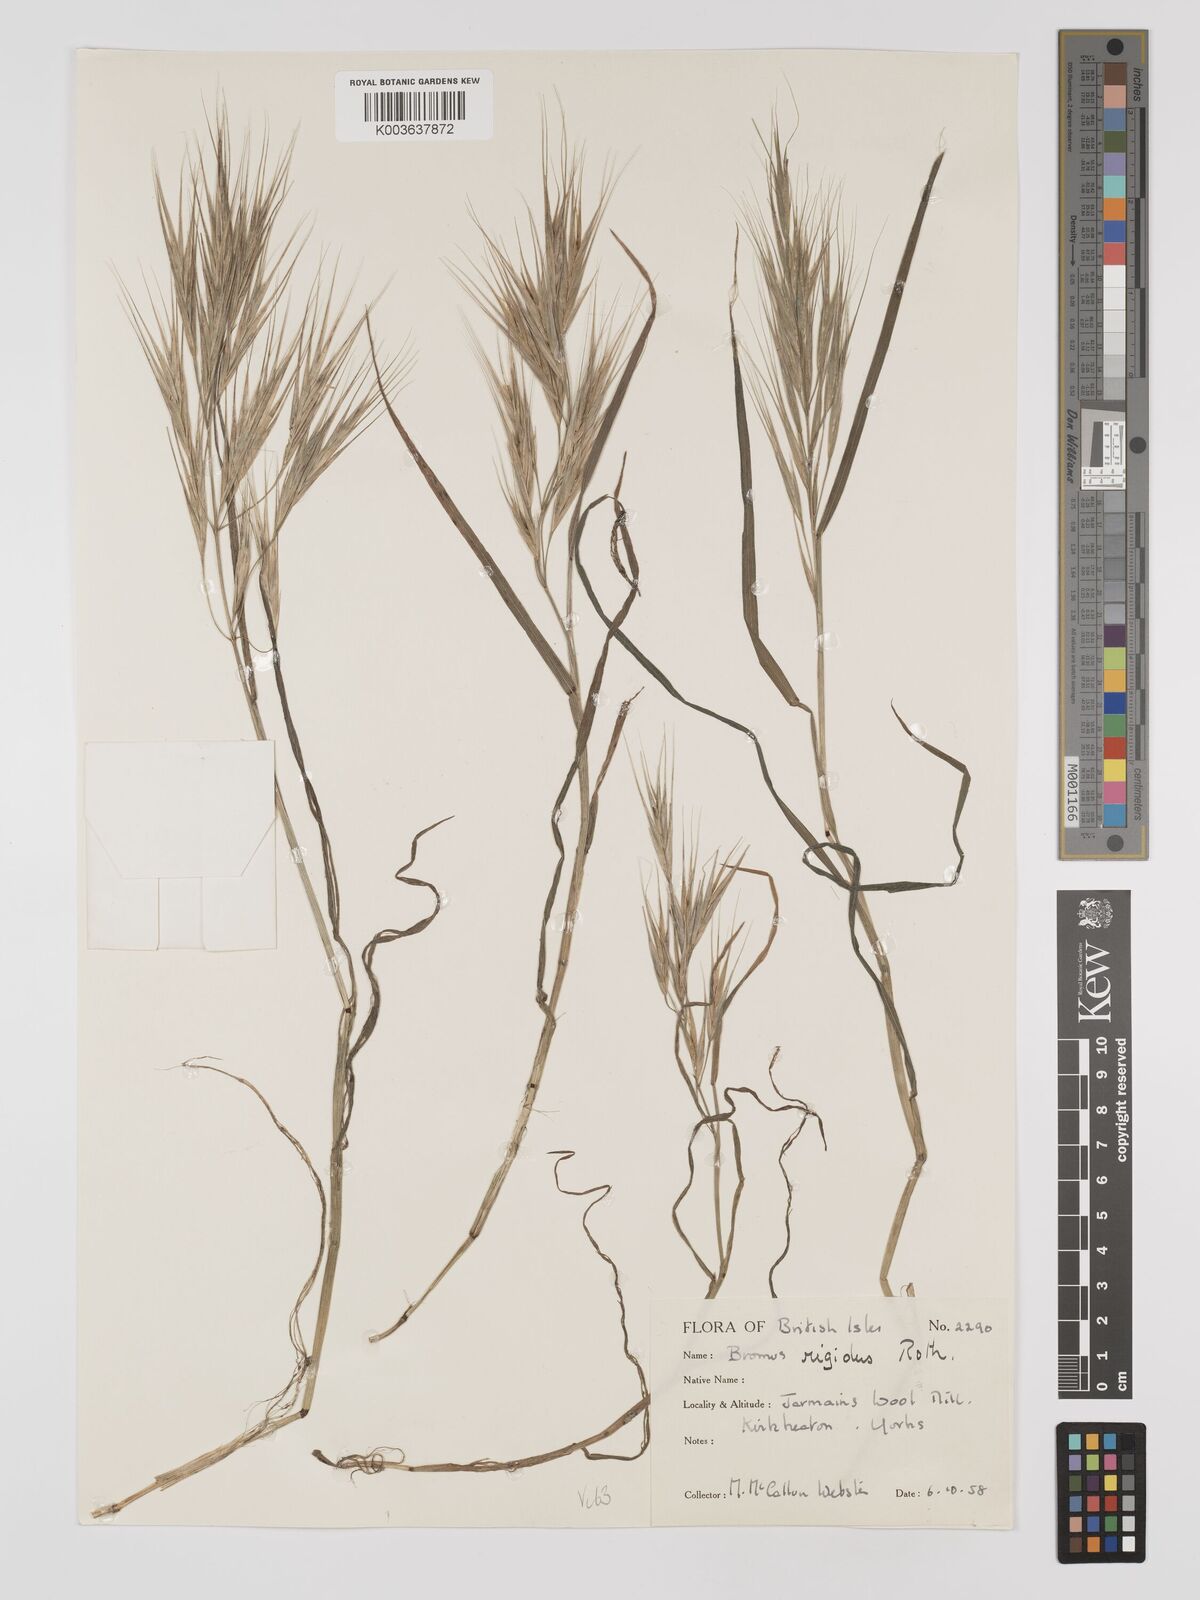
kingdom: Plantae
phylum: Tracheophyta
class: Liliopsida
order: Poales
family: Poaceae
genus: Bromus
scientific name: Bromus
